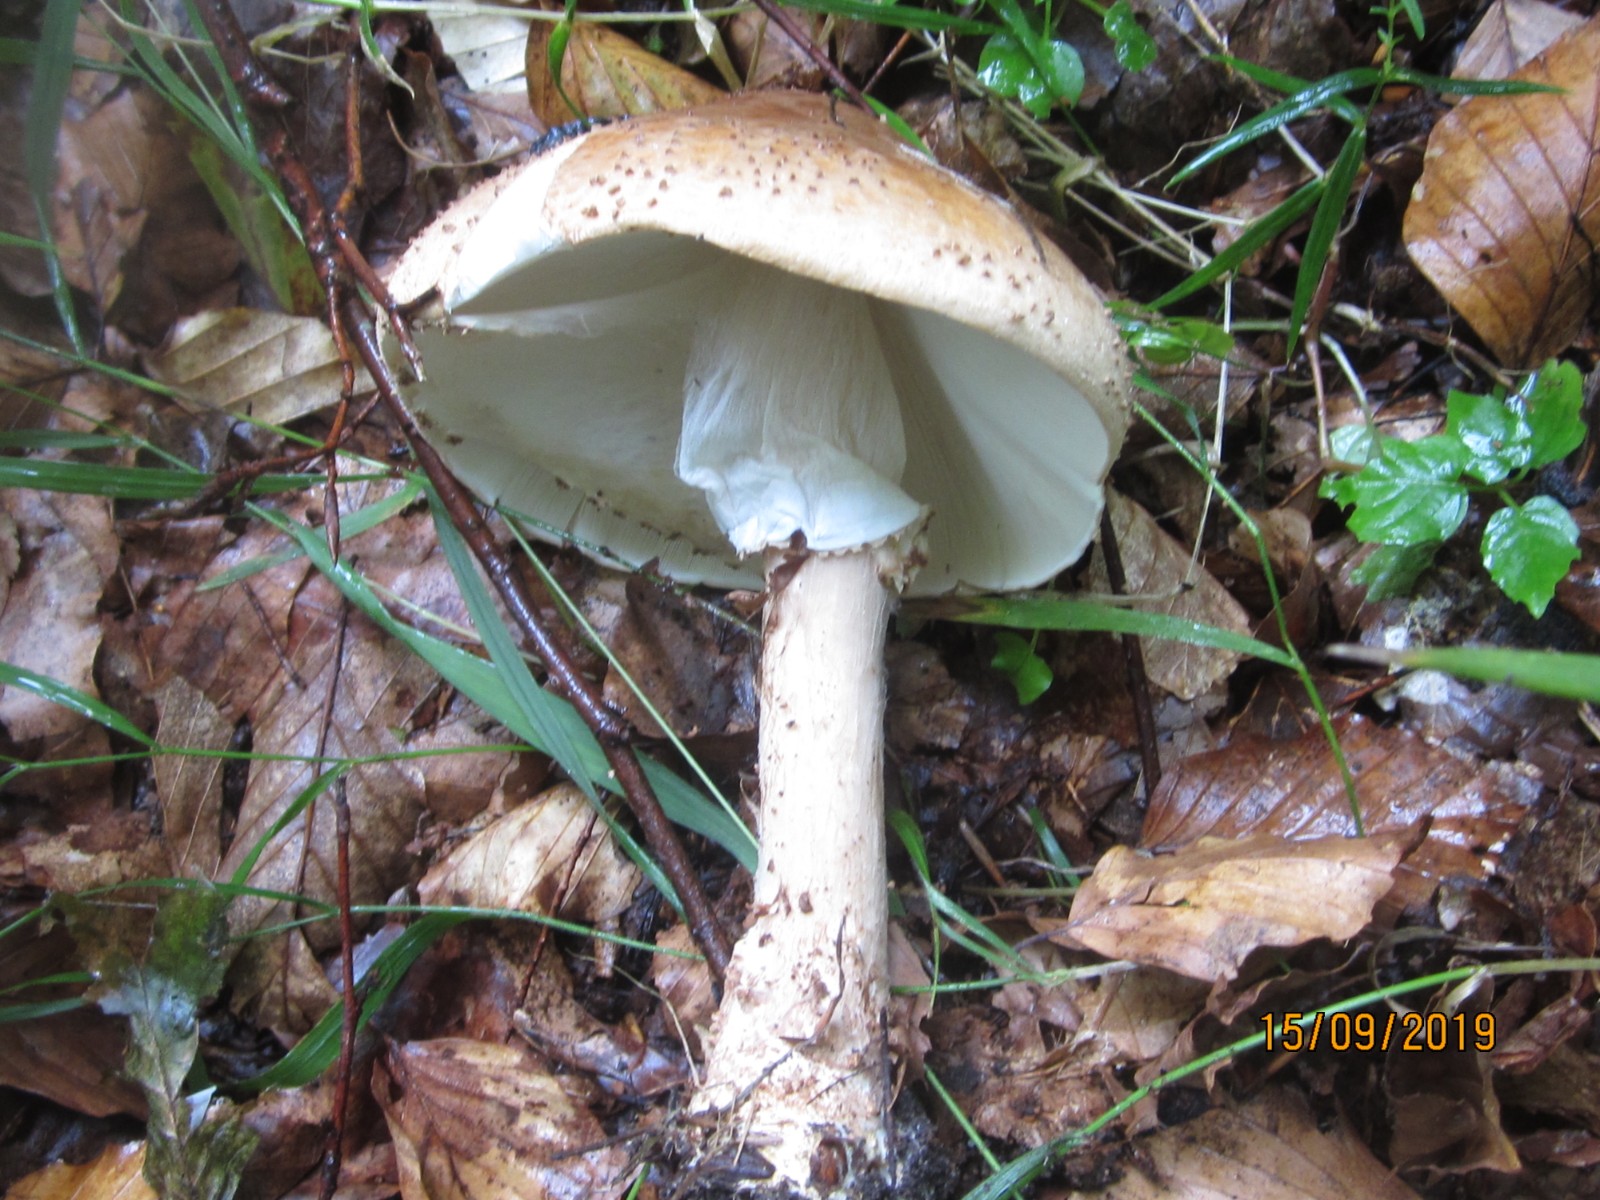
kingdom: Fungi
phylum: Basidiomycota
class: Agaricomycetes
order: Agaricales
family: Agaricaceae
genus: Echinoderma
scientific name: Echinoderma asperum
